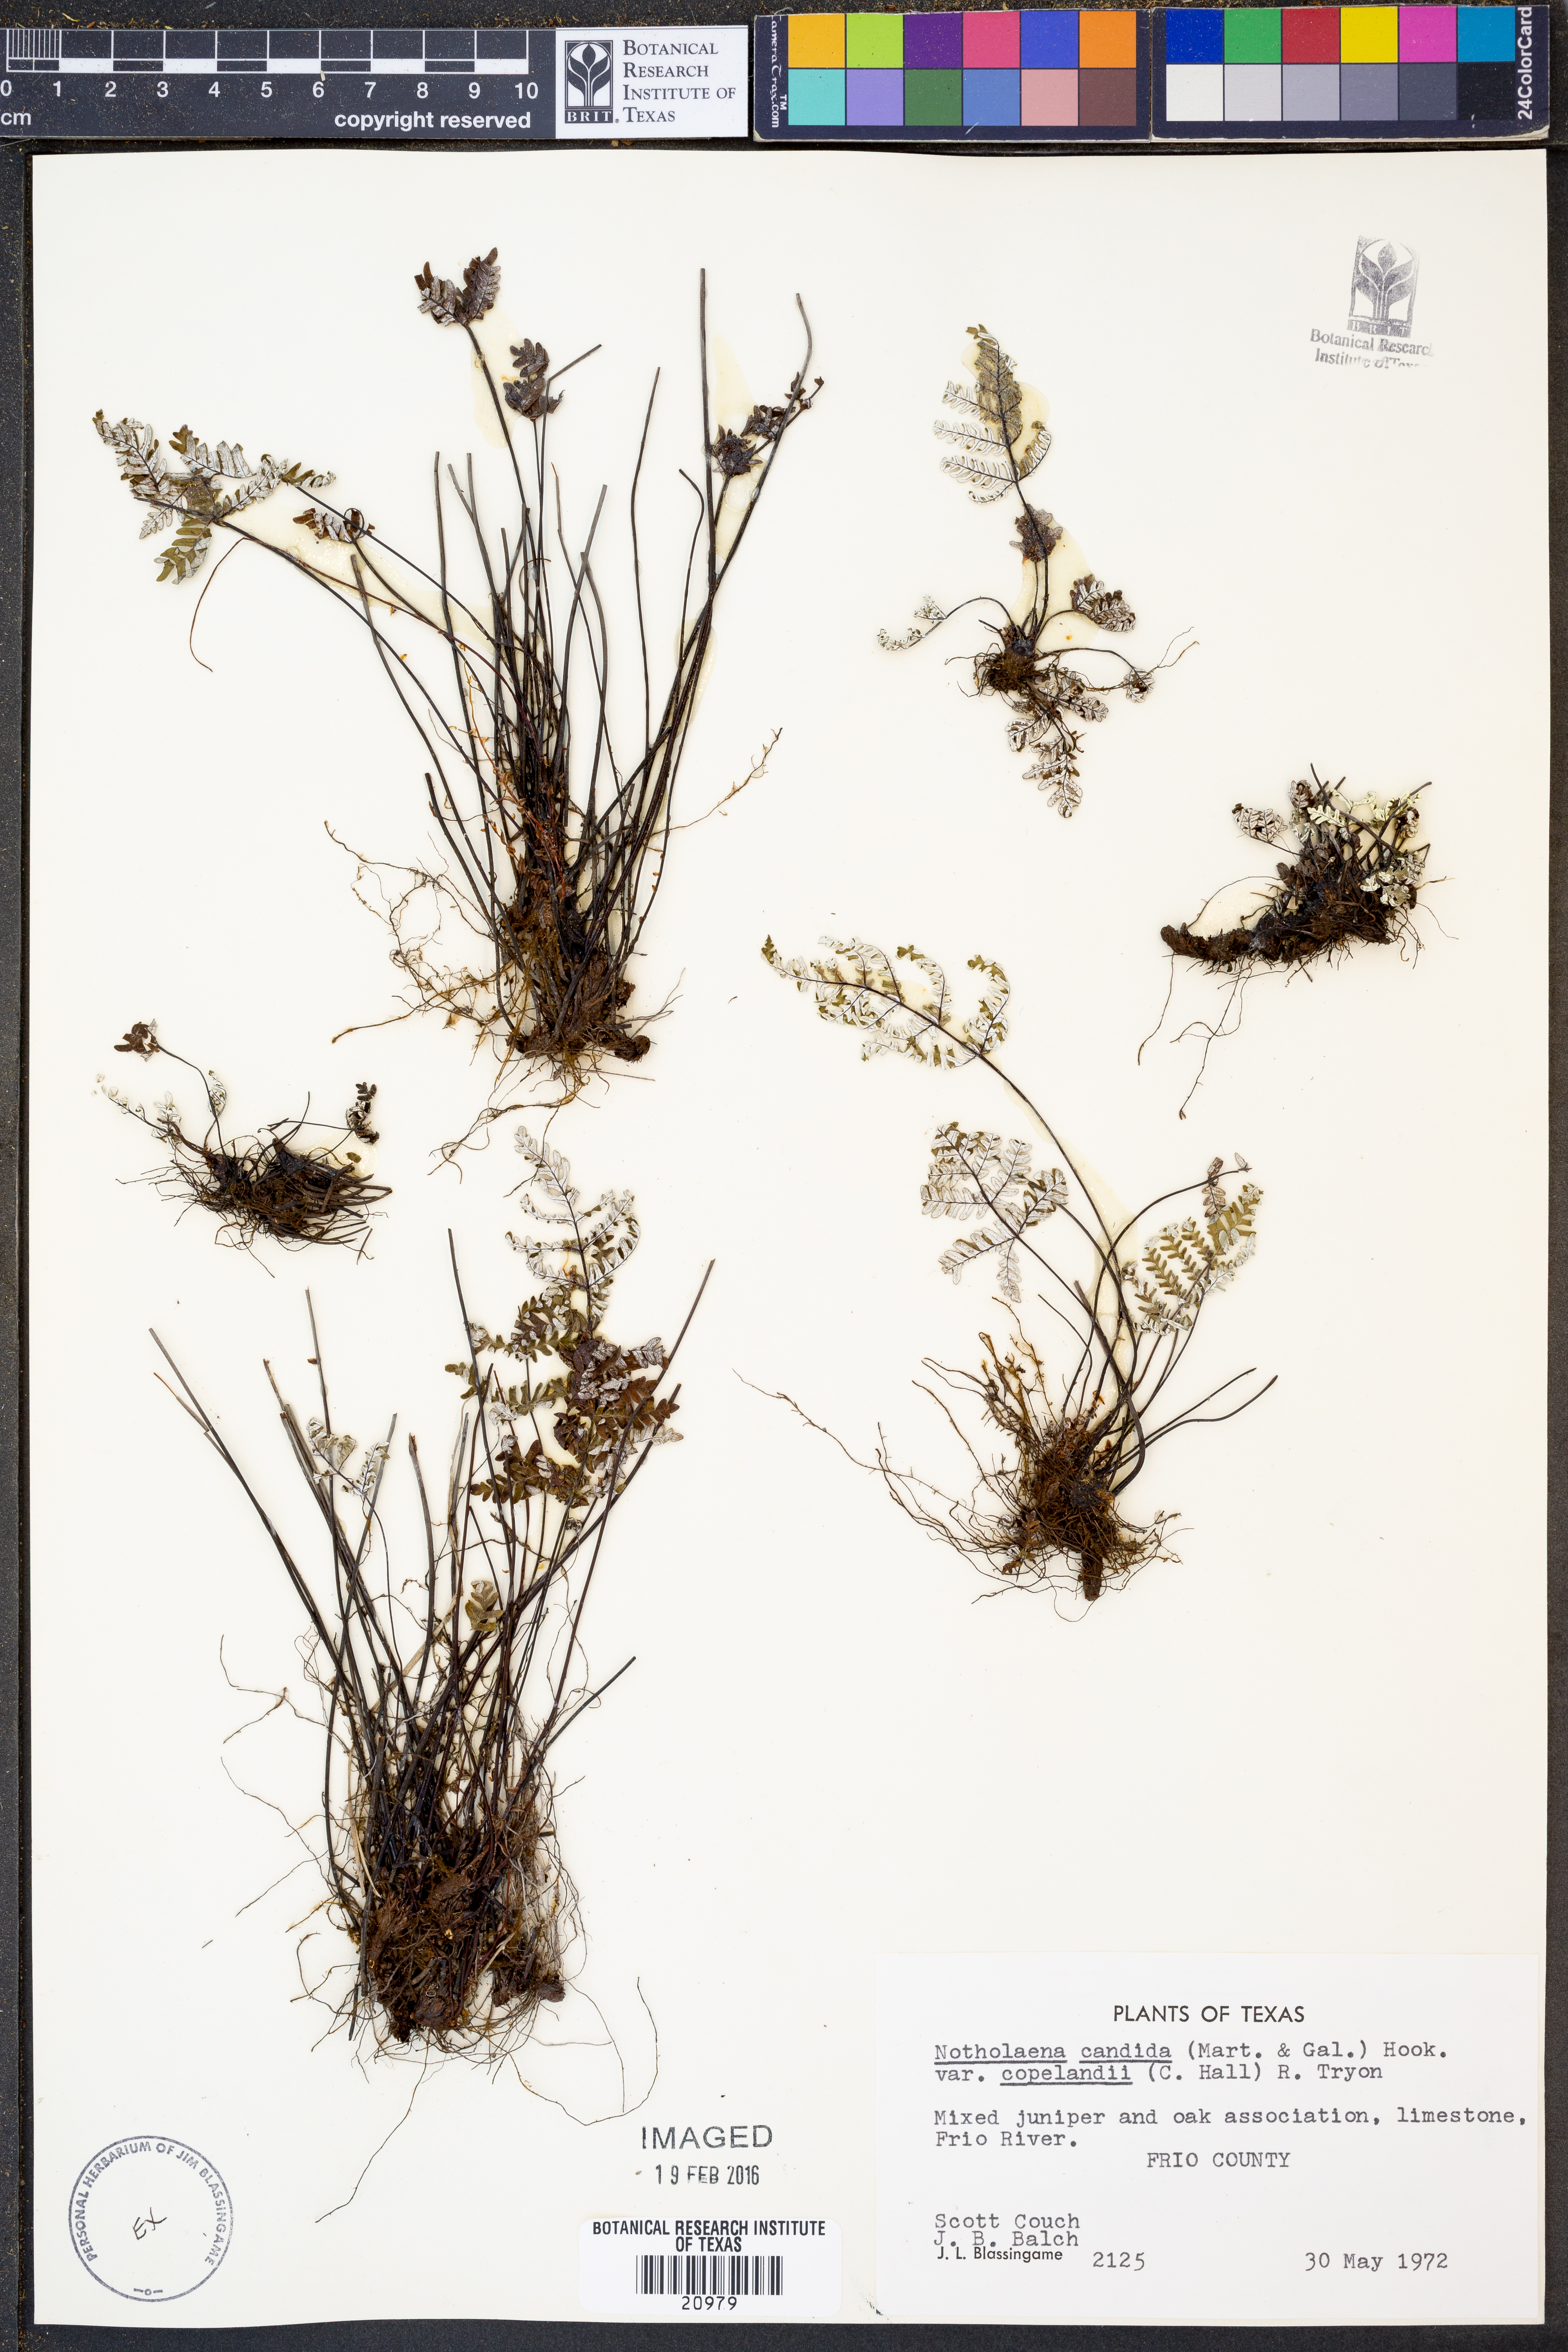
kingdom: Plantae
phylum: Tracheophyta
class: Polypodiopsida
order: Polypodiales
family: Pteridaceae
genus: Notholaena
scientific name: Notholaena candida
